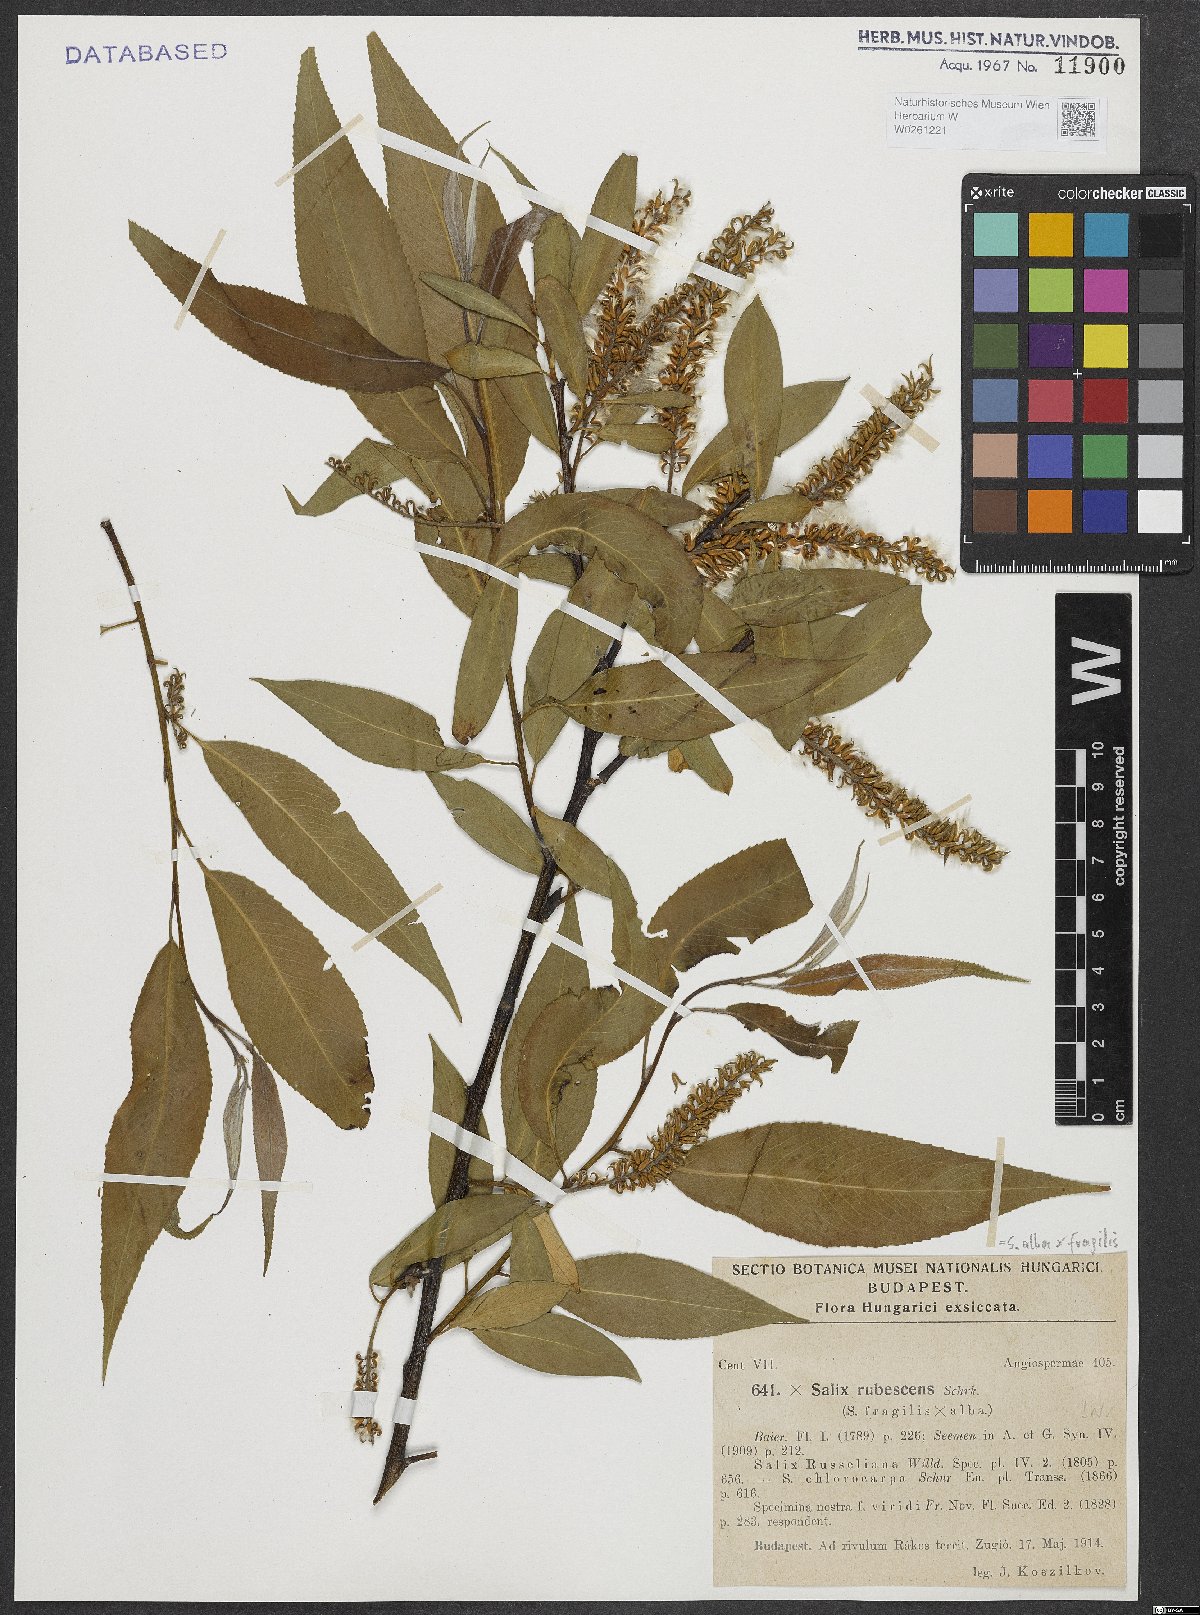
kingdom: Plantae
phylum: Tracheophyta
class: Magnoliopsida
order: Malpighiales
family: Salicaceae
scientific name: Salicaceae
